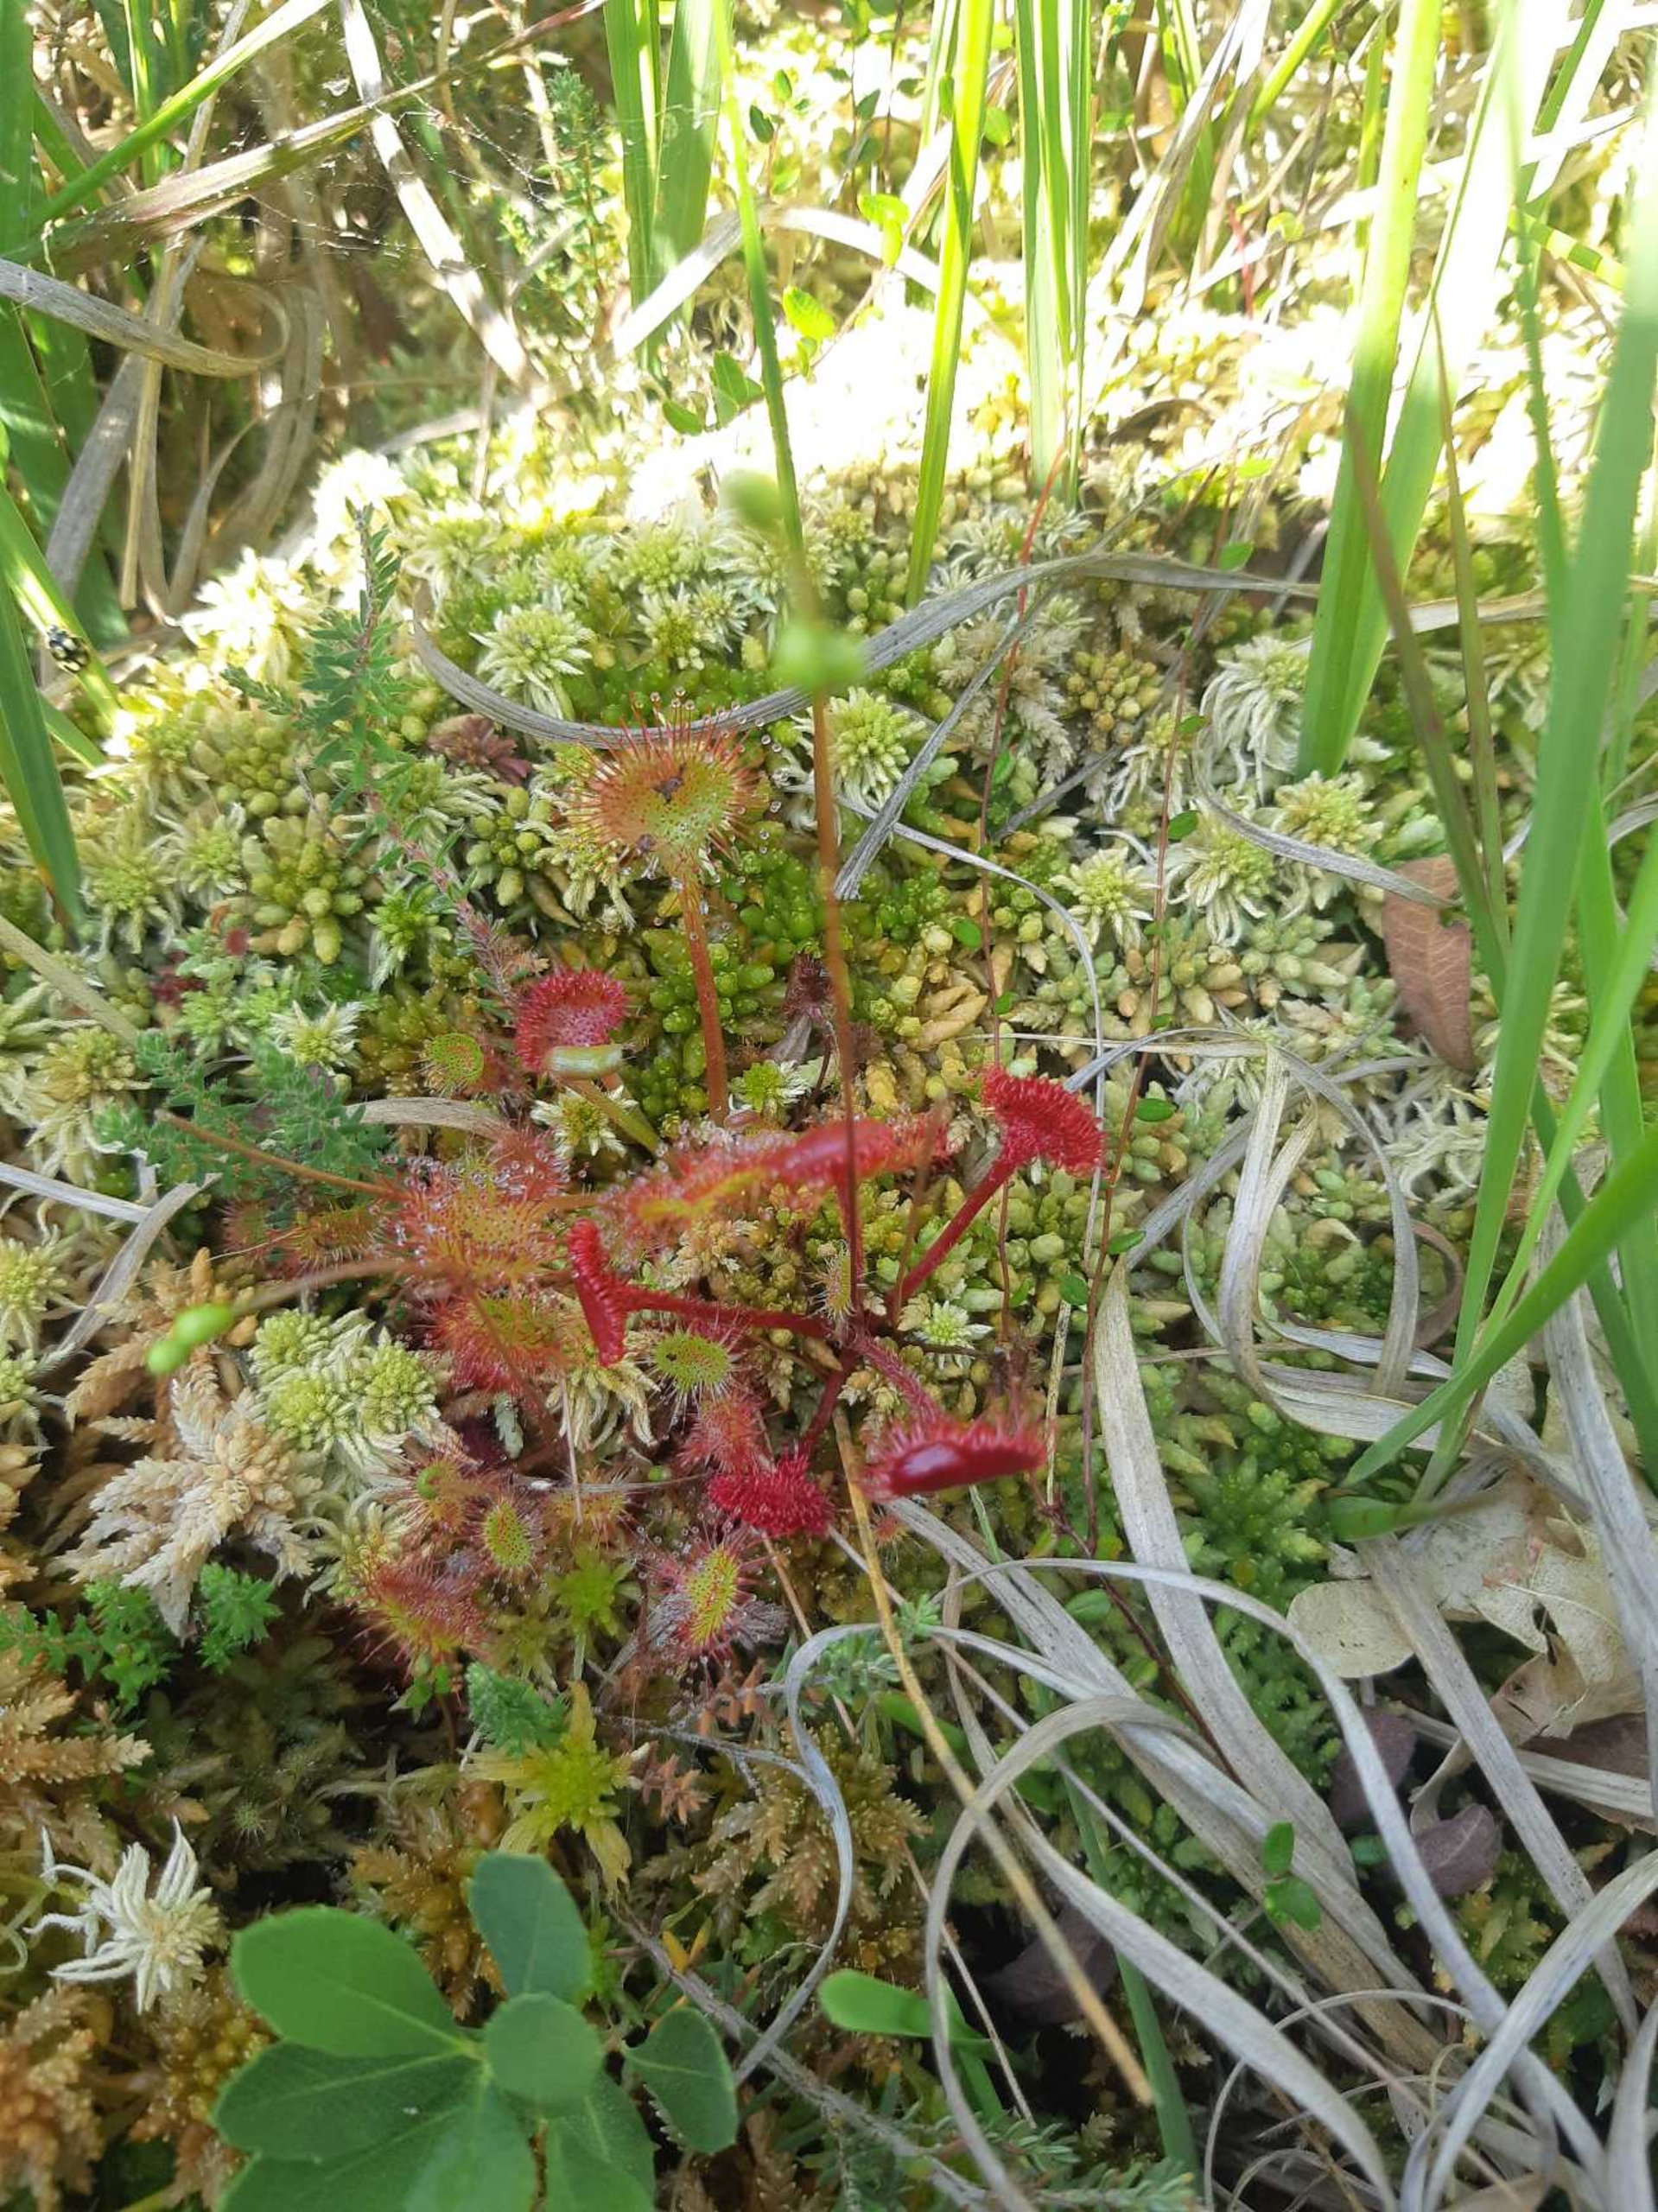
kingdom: Plantae
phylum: Tracheophyta
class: Magnoliopsida
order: Caryophyllales
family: Droseraceae
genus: Drosera
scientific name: Drosera rotundifolia
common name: Rundbladet soldug
